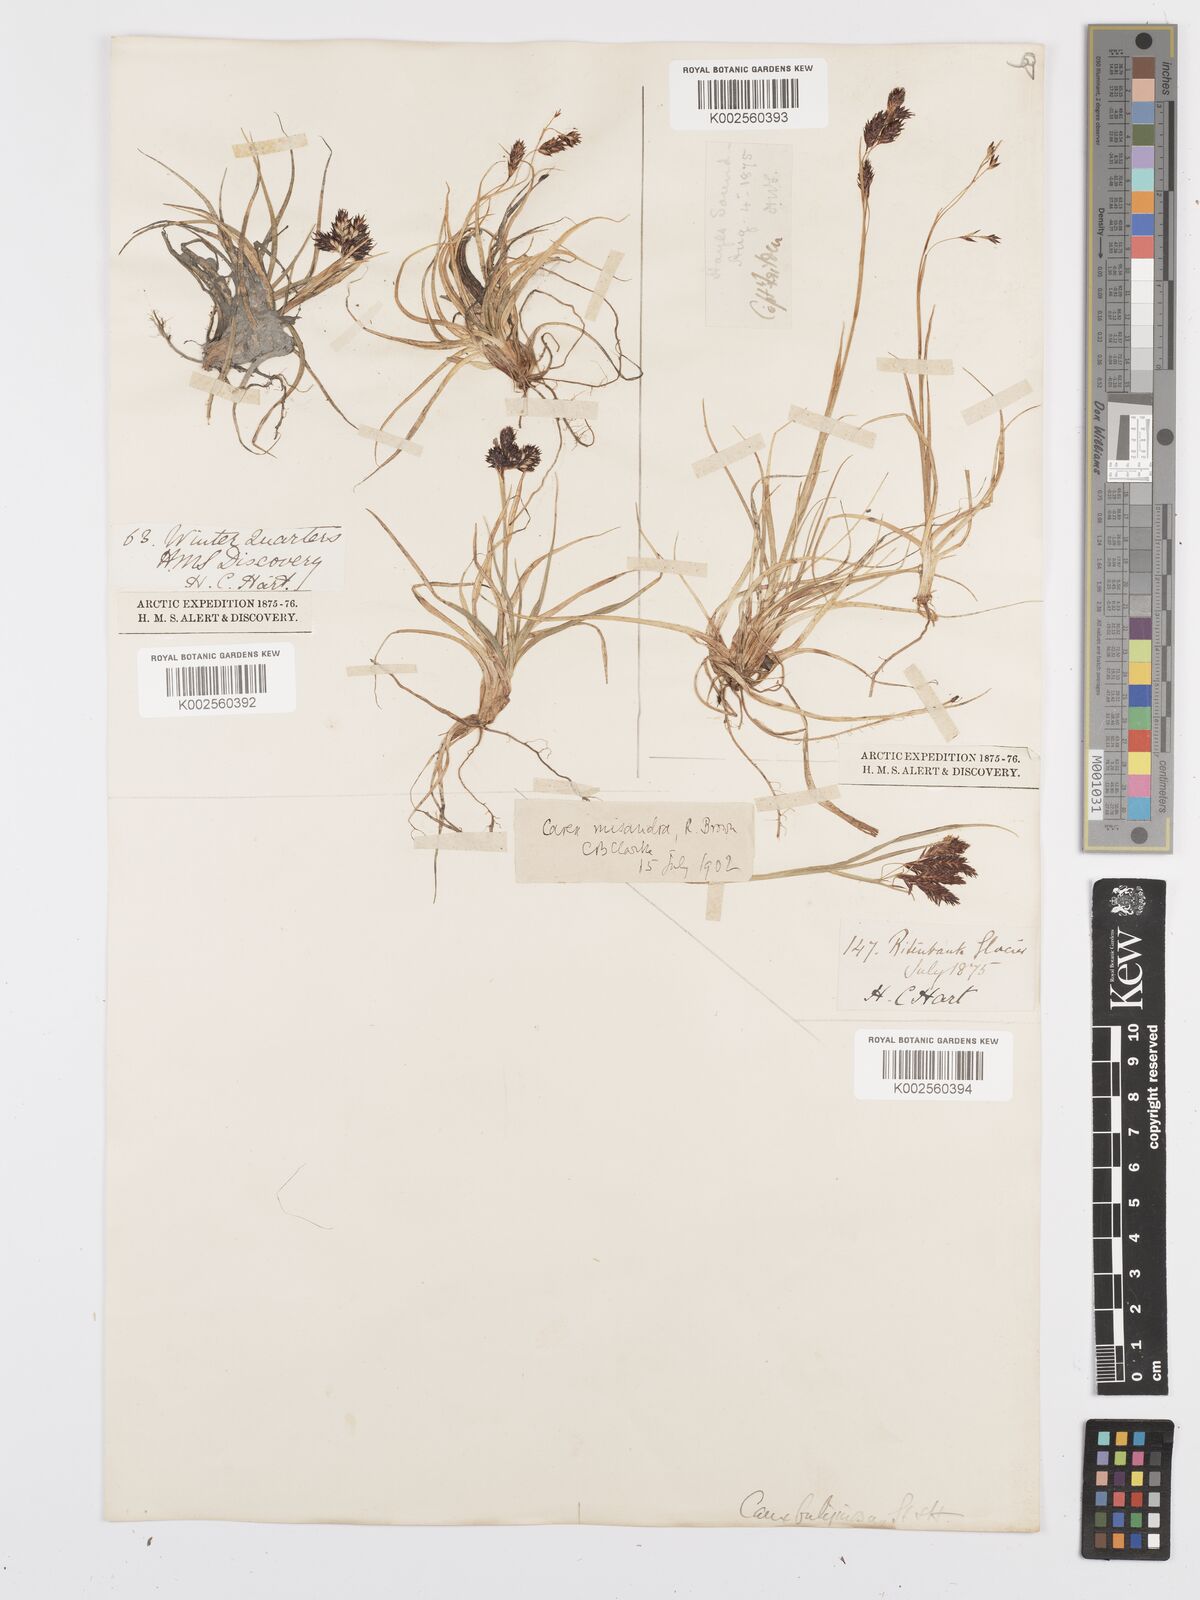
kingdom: Plantae
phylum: Tracheophyta
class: Liliopsida
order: Poales
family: Cyperaceae
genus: Carex
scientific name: Carex fuliginosa
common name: Few-flowered sedge
